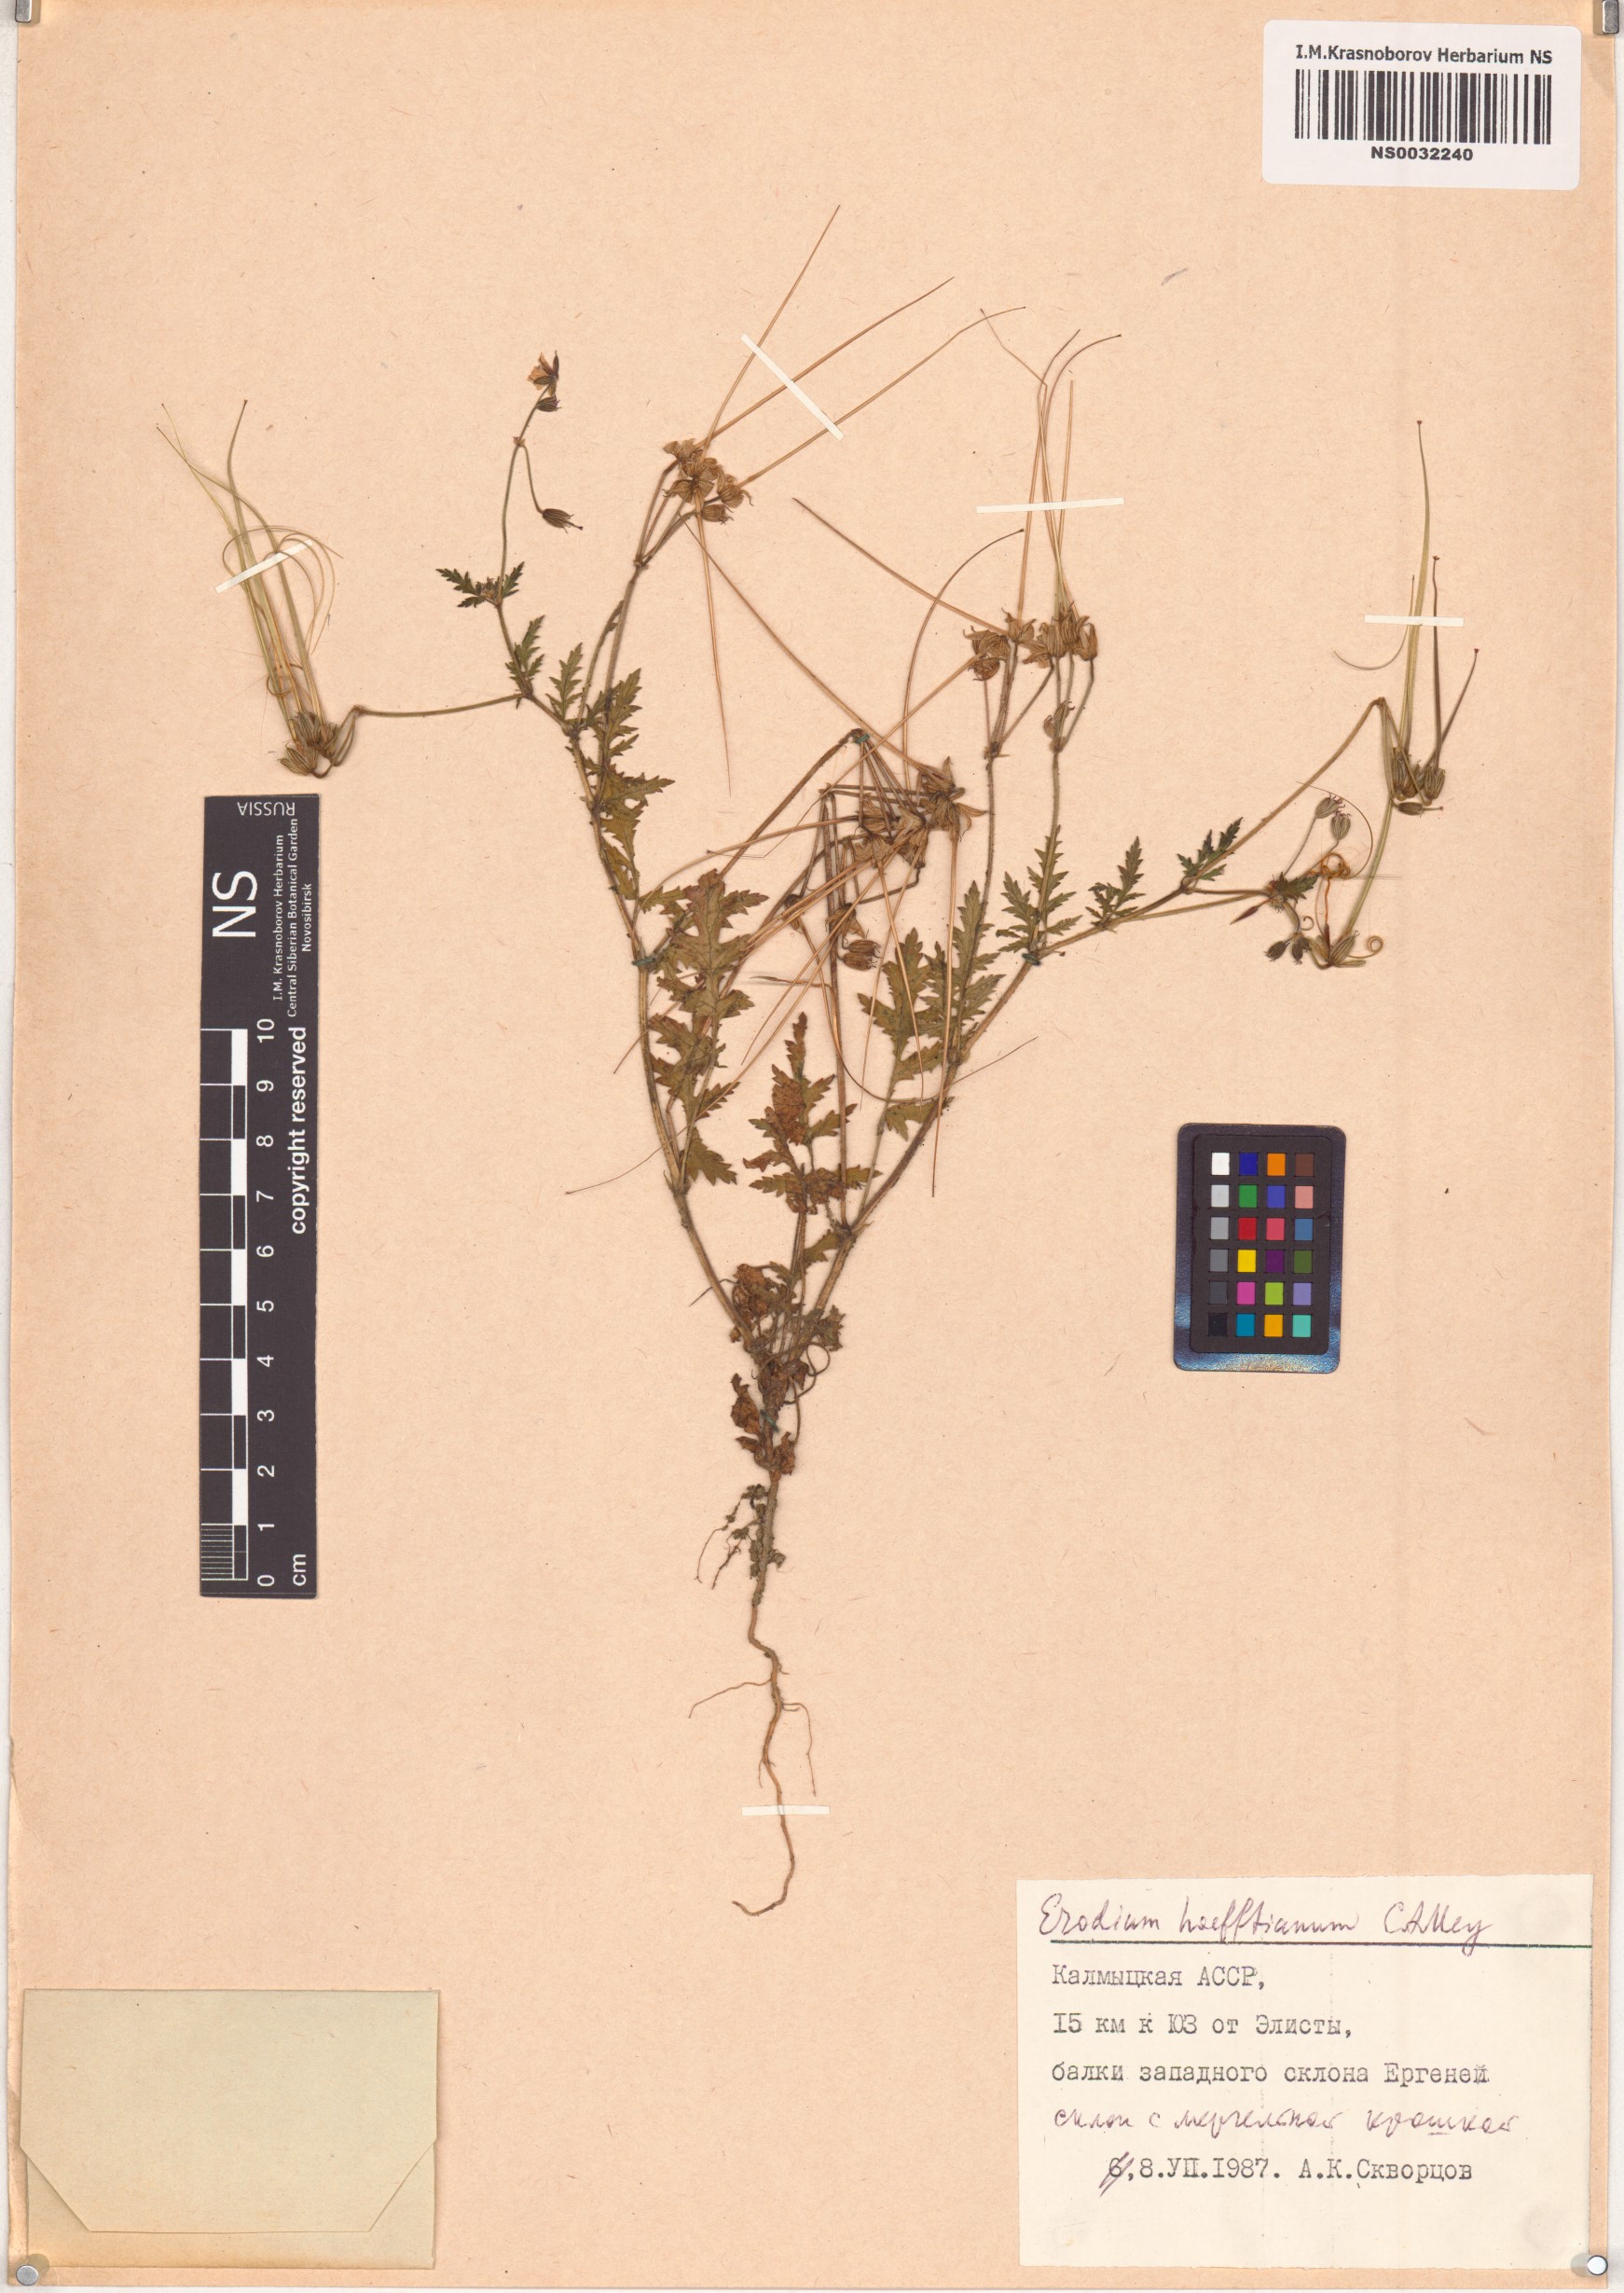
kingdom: Plantae
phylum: Tracheophyta
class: Magnoliopsida
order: Geraniales
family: Geraniaceae
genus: Erodium
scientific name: Erodium hoefftianum
